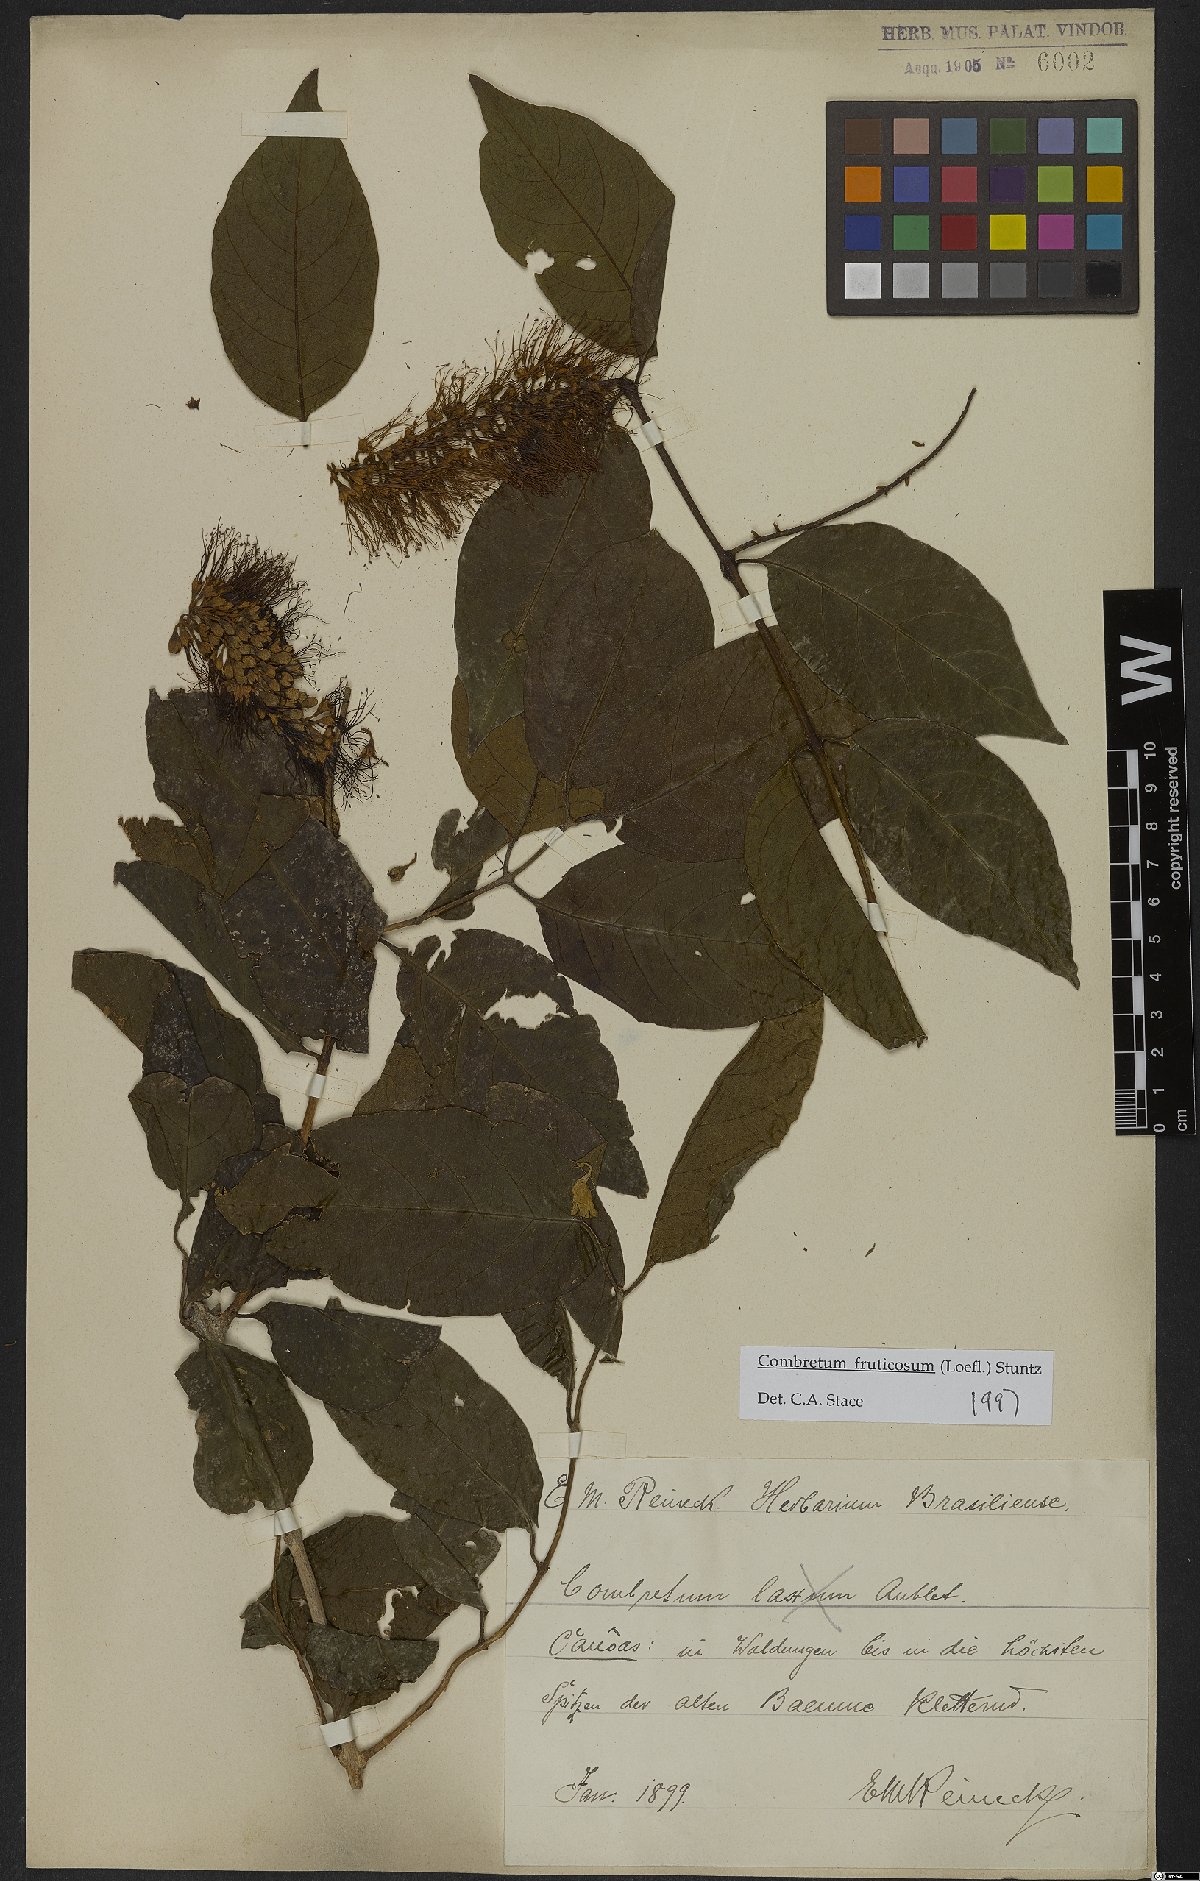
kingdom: Plantae
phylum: Tracheophyta
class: Magnoliopsida
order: Myrtales
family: Combretaceae
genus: Combretum
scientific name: Combretum fruticosum
